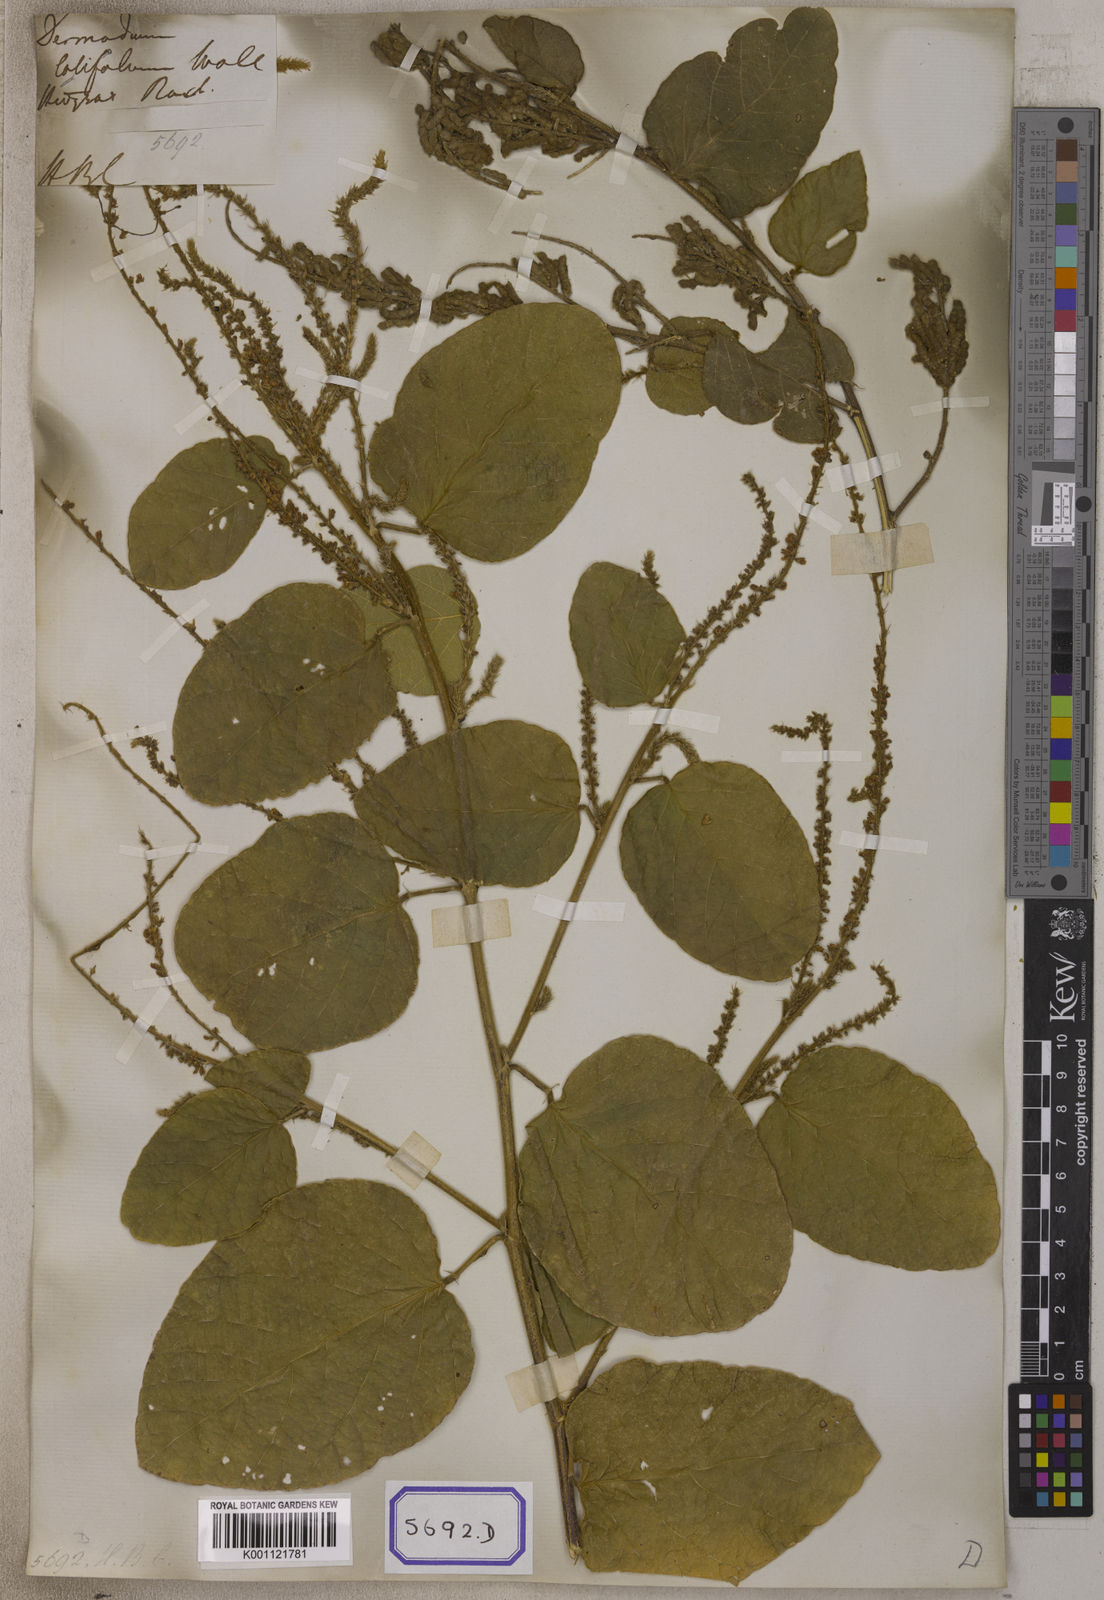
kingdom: Plantae
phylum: Tracheophyta
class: Magnoliopsida
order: Fabales
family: Fabaceae
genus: Polhillides
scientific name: Polhillides velutina
